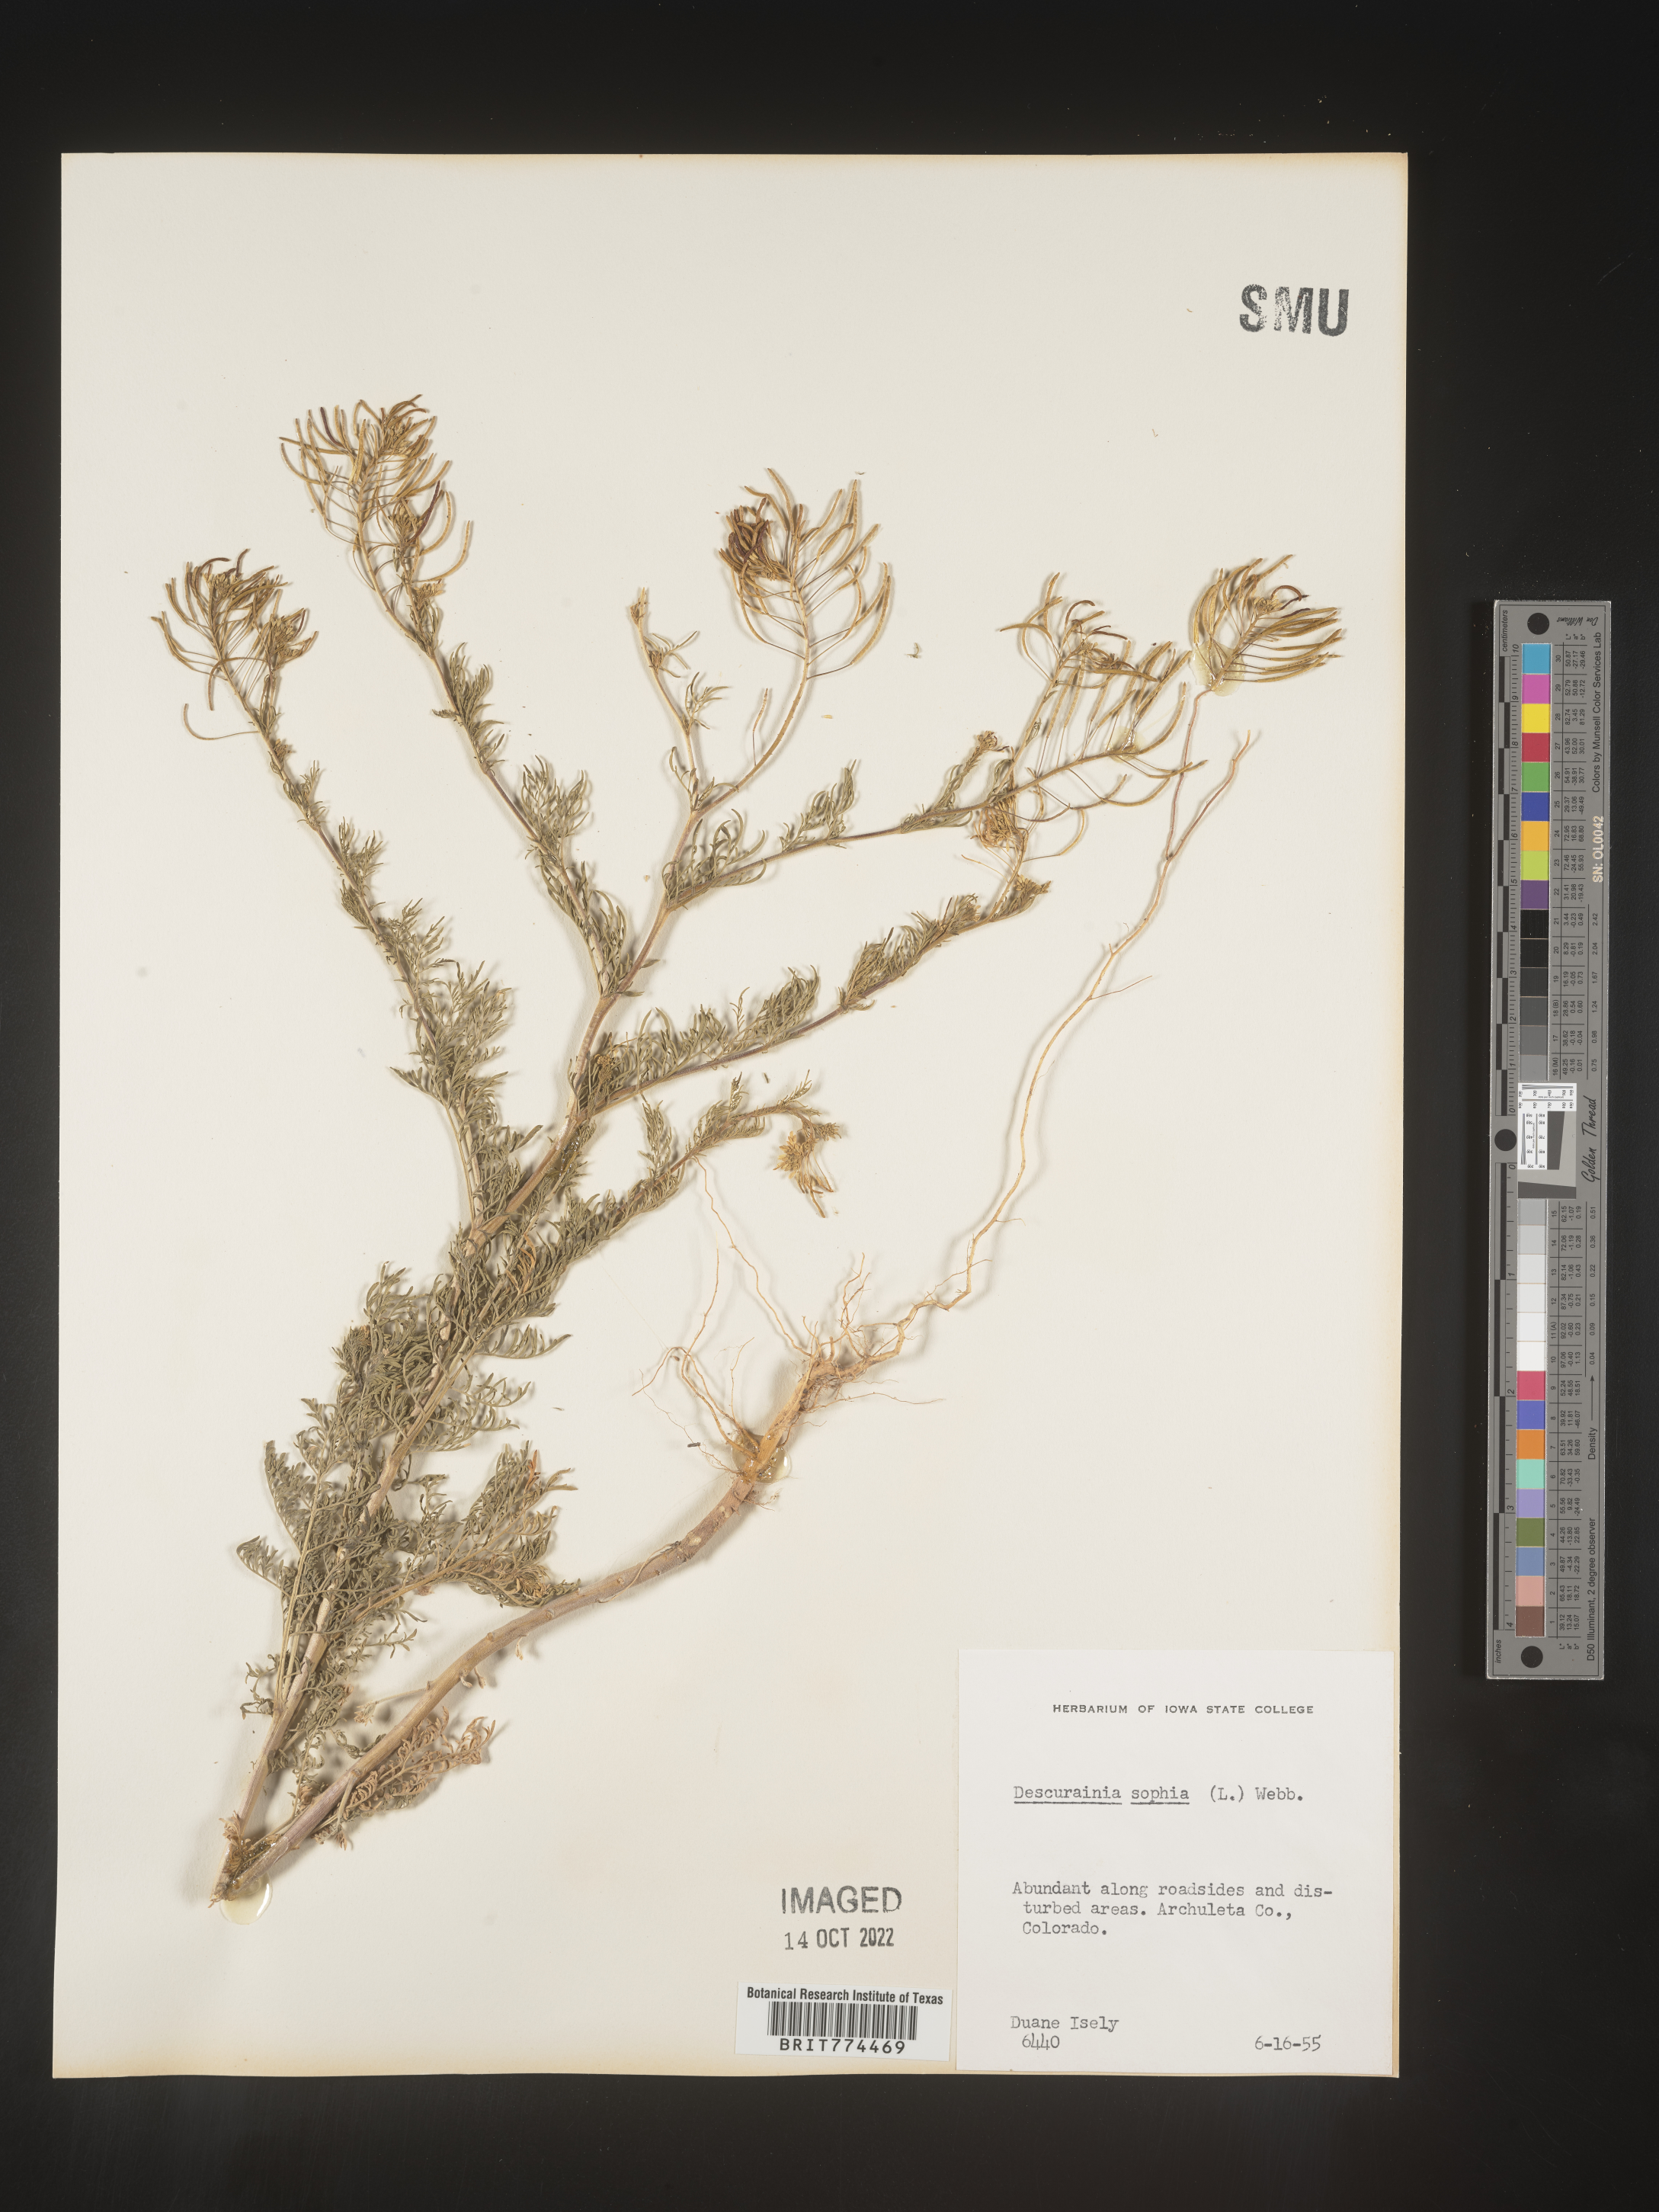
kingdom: Plantae
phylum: Tracheophyta
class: Magnoliopsida
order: Brassicales
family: Brassicaceae
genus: Descurainia
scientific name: Descurainia sophia
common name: Flixweed
